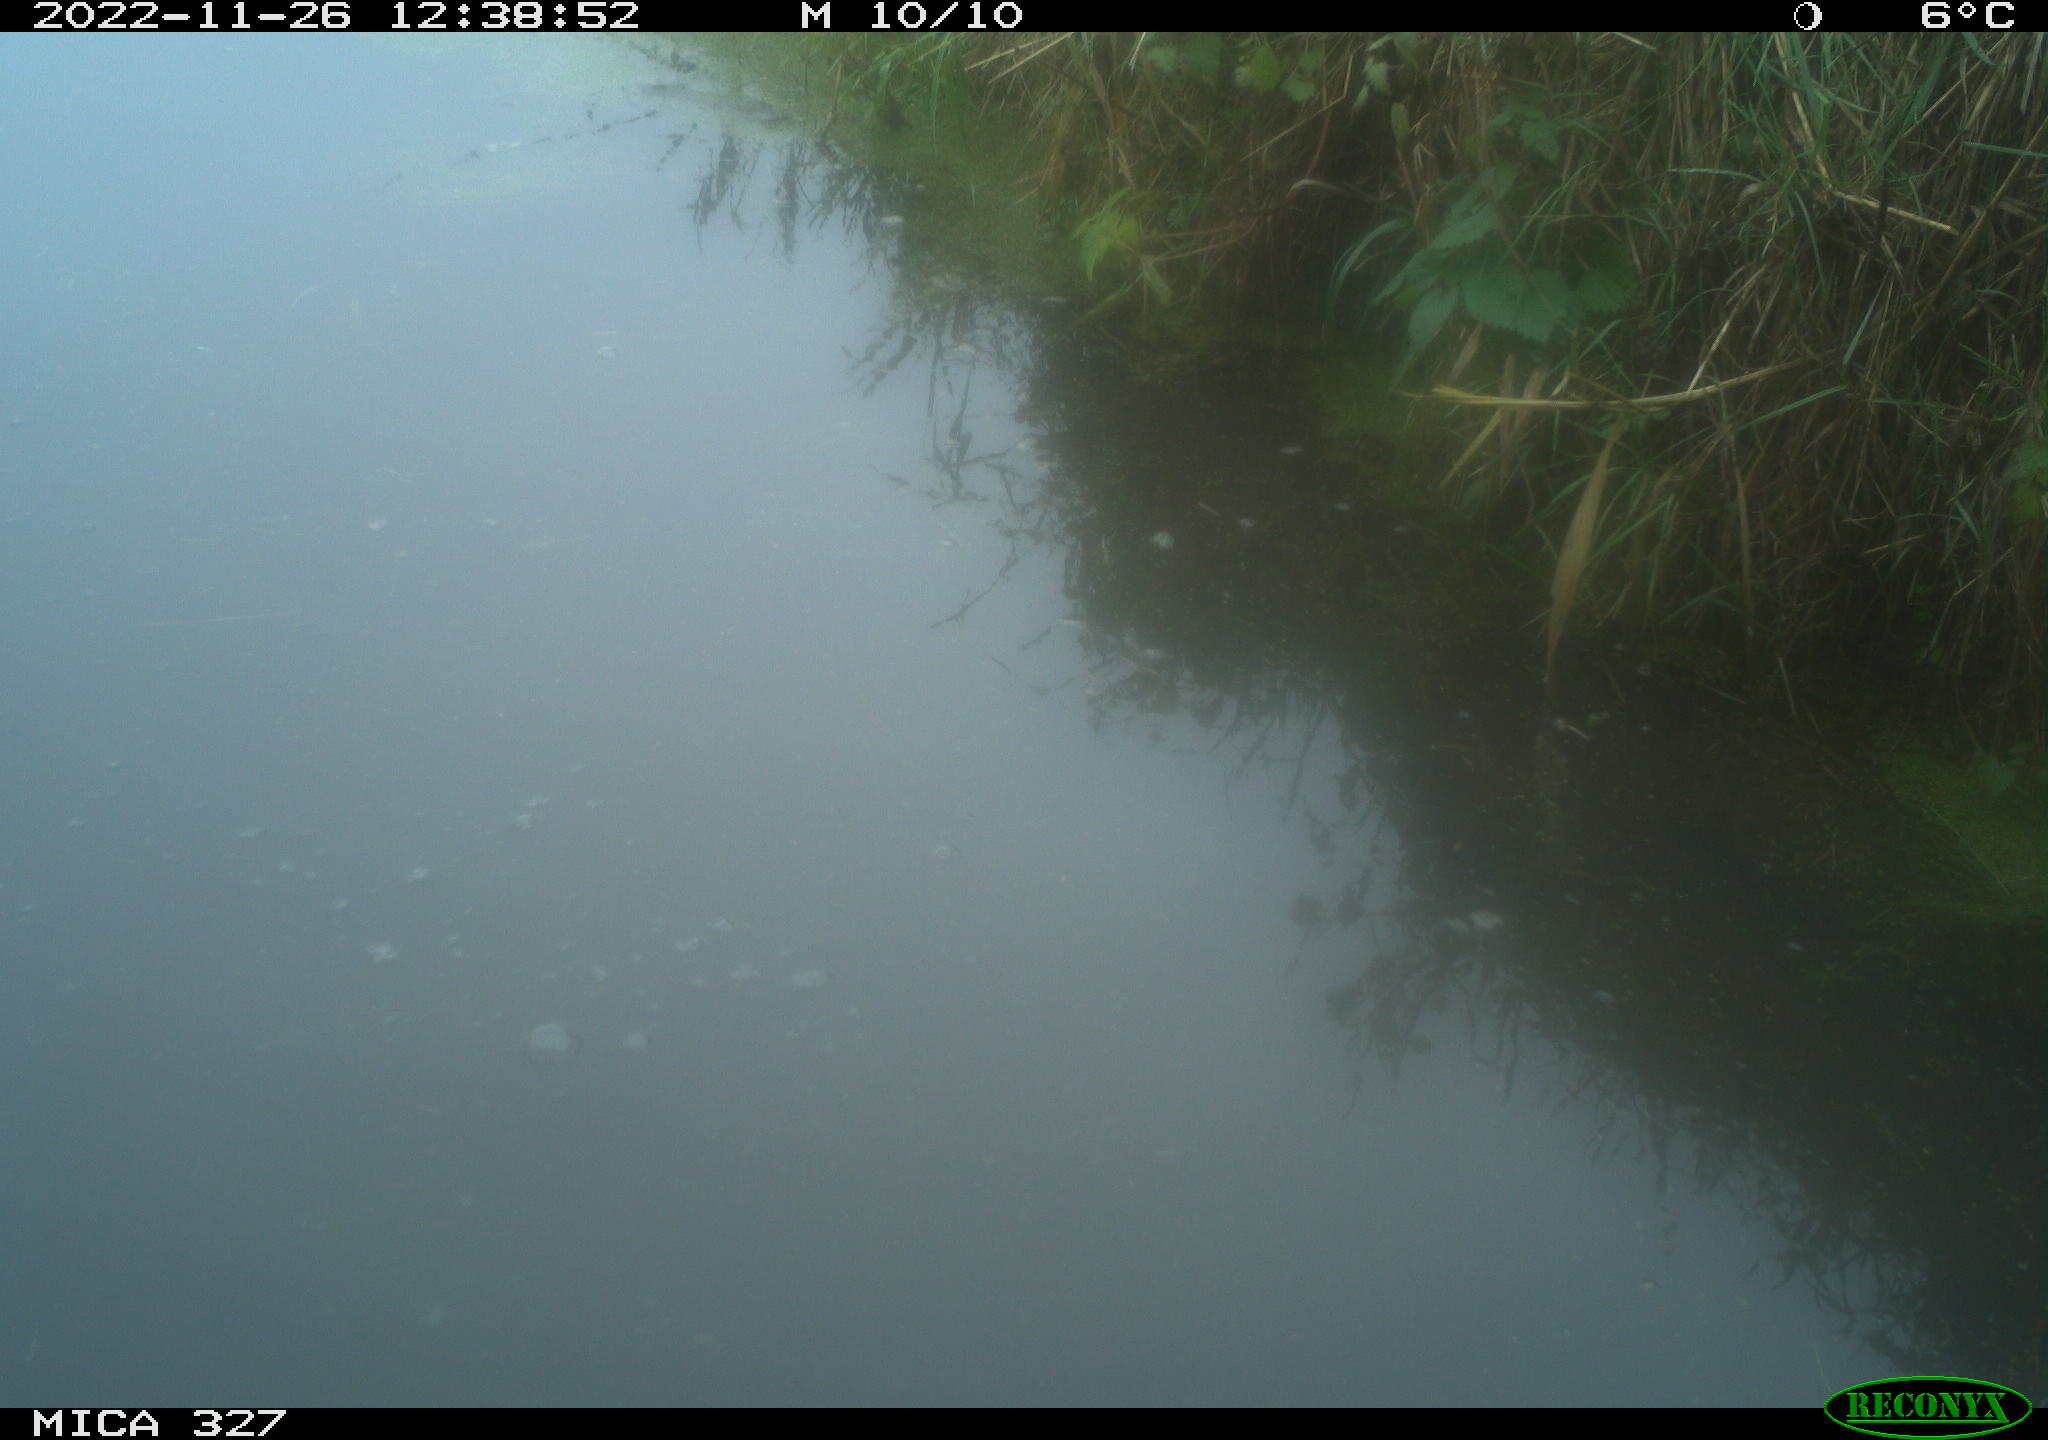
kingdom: Animalia
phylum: Chordata
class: Aves
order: Gruiformes
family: Rallidae
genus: Gallinula
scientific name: Gallinula chloropus
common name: Common moorhen
